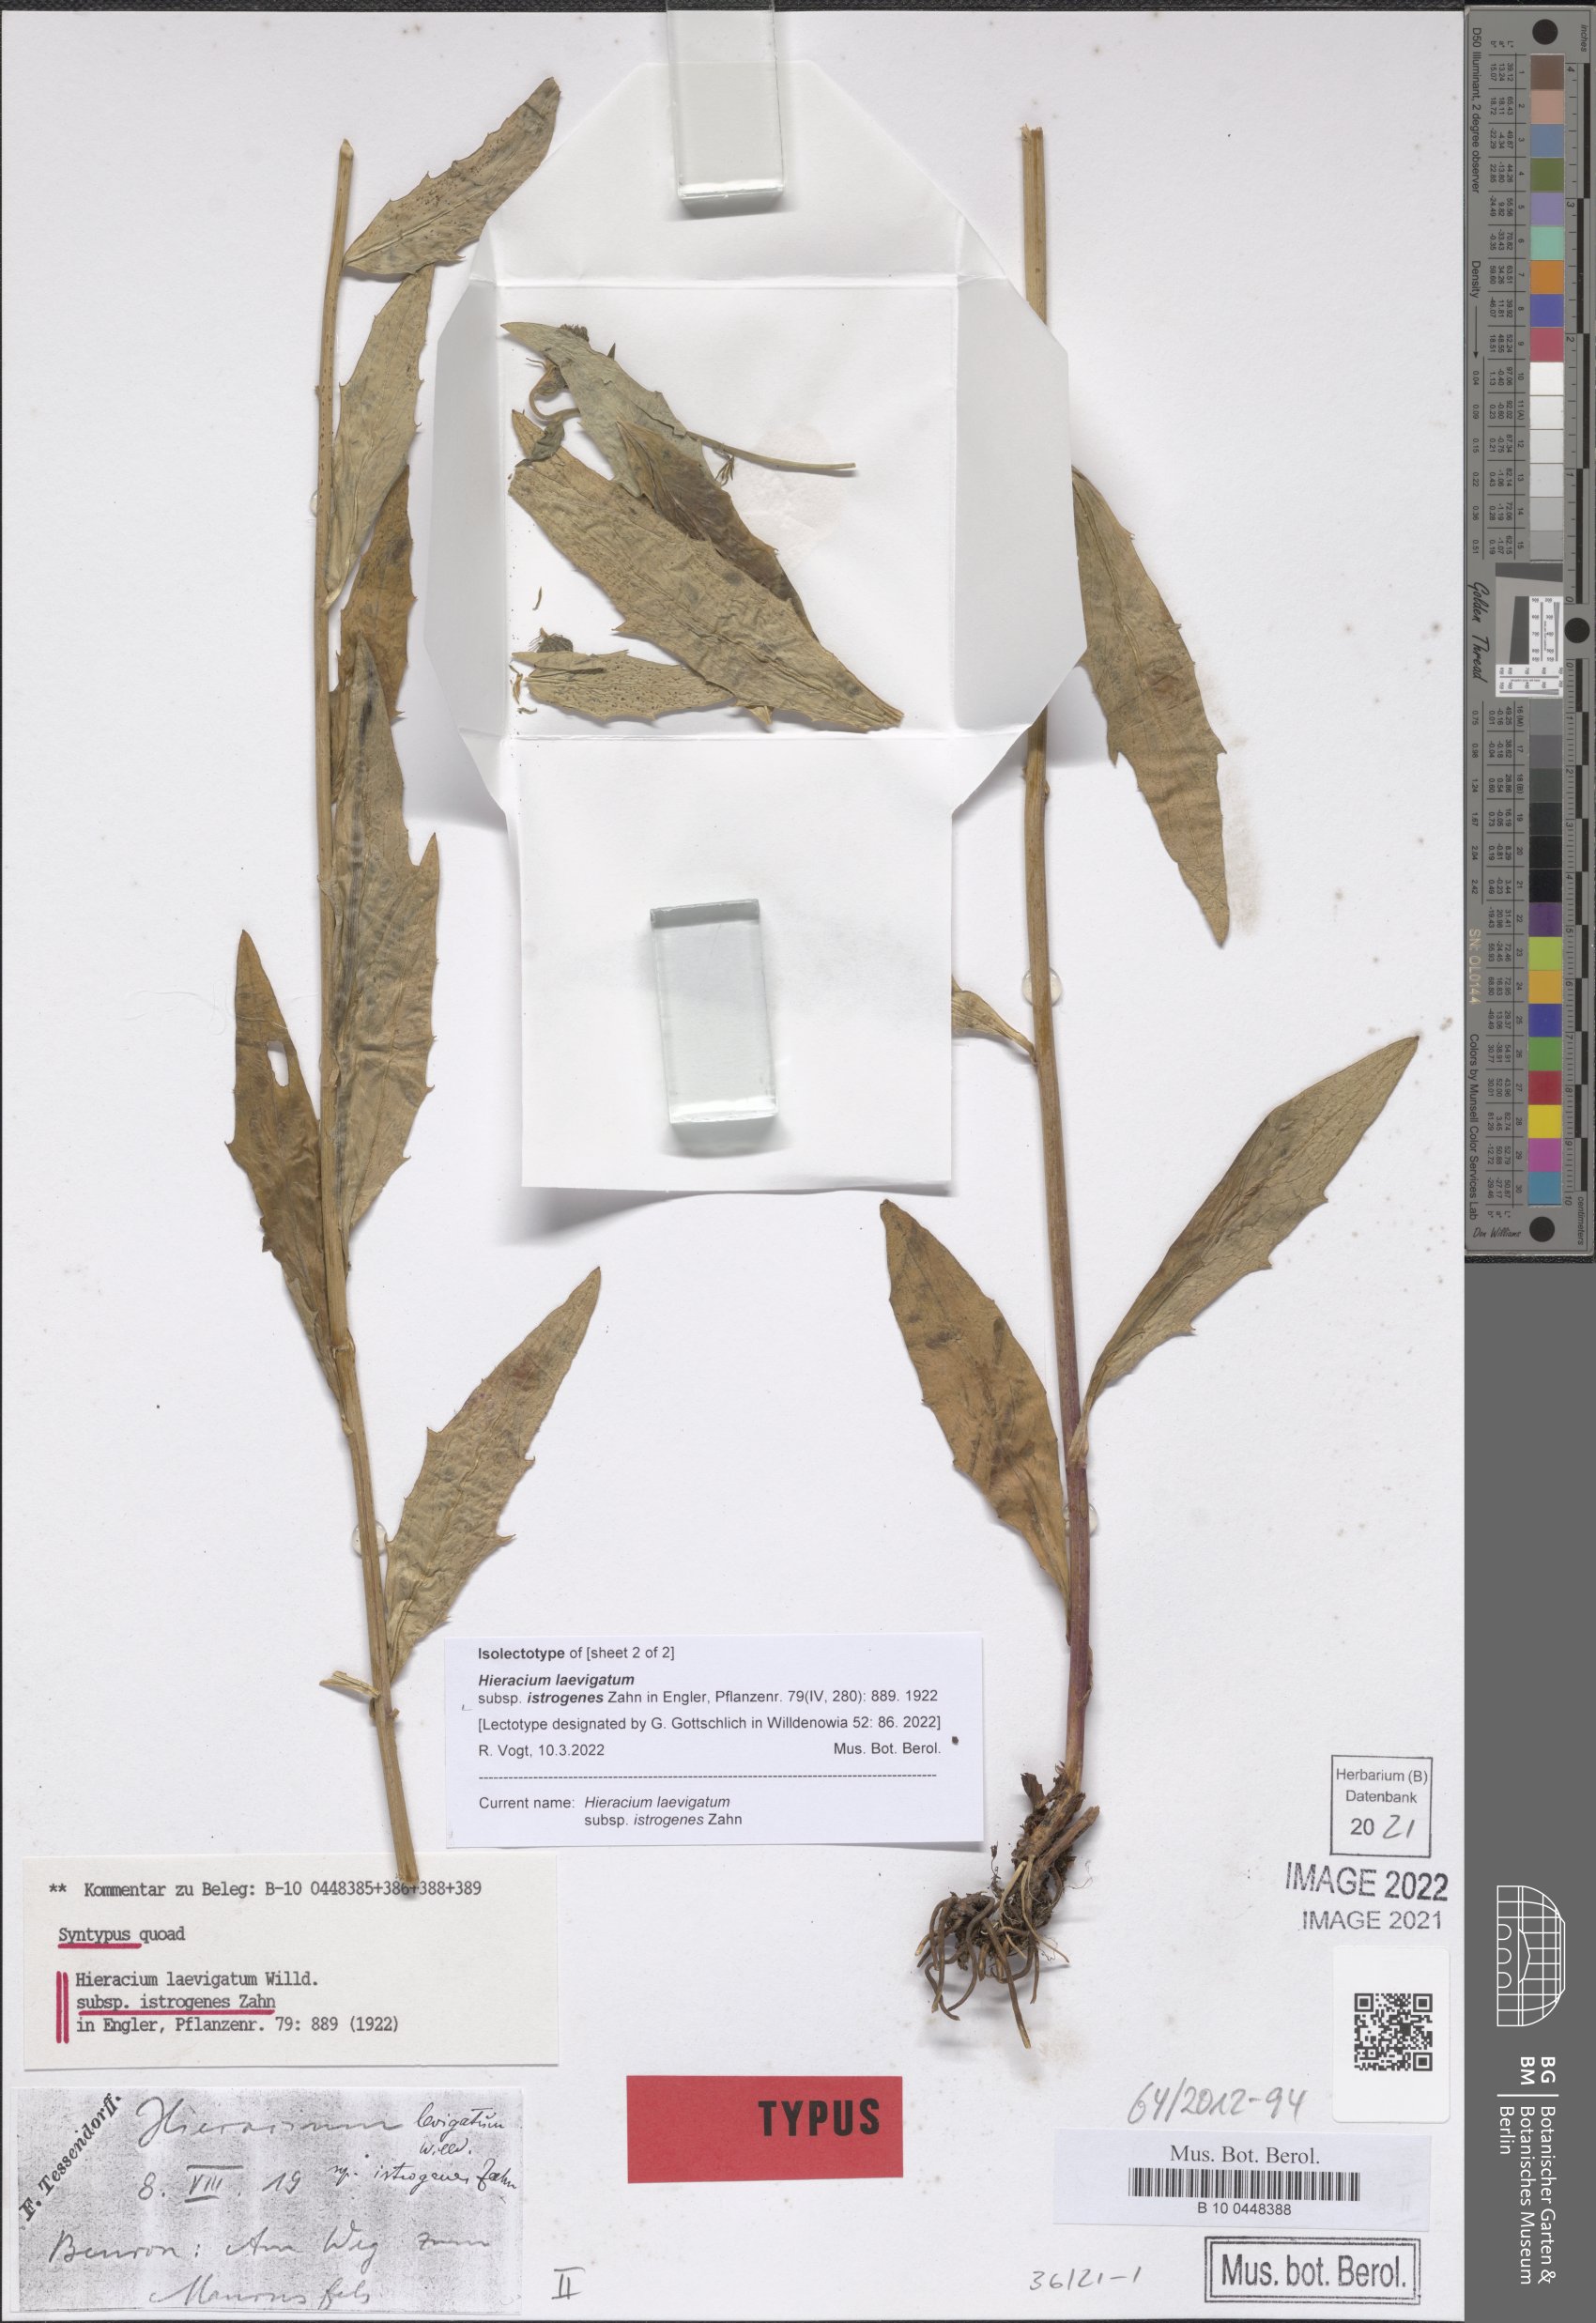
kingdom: Plantae
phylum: Tracheophyta
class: Magnoliopsida
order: Asterales
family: Asteraceae
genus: Hieracium
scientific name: Hieracium laevigatum
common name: Smooth hawkweed
